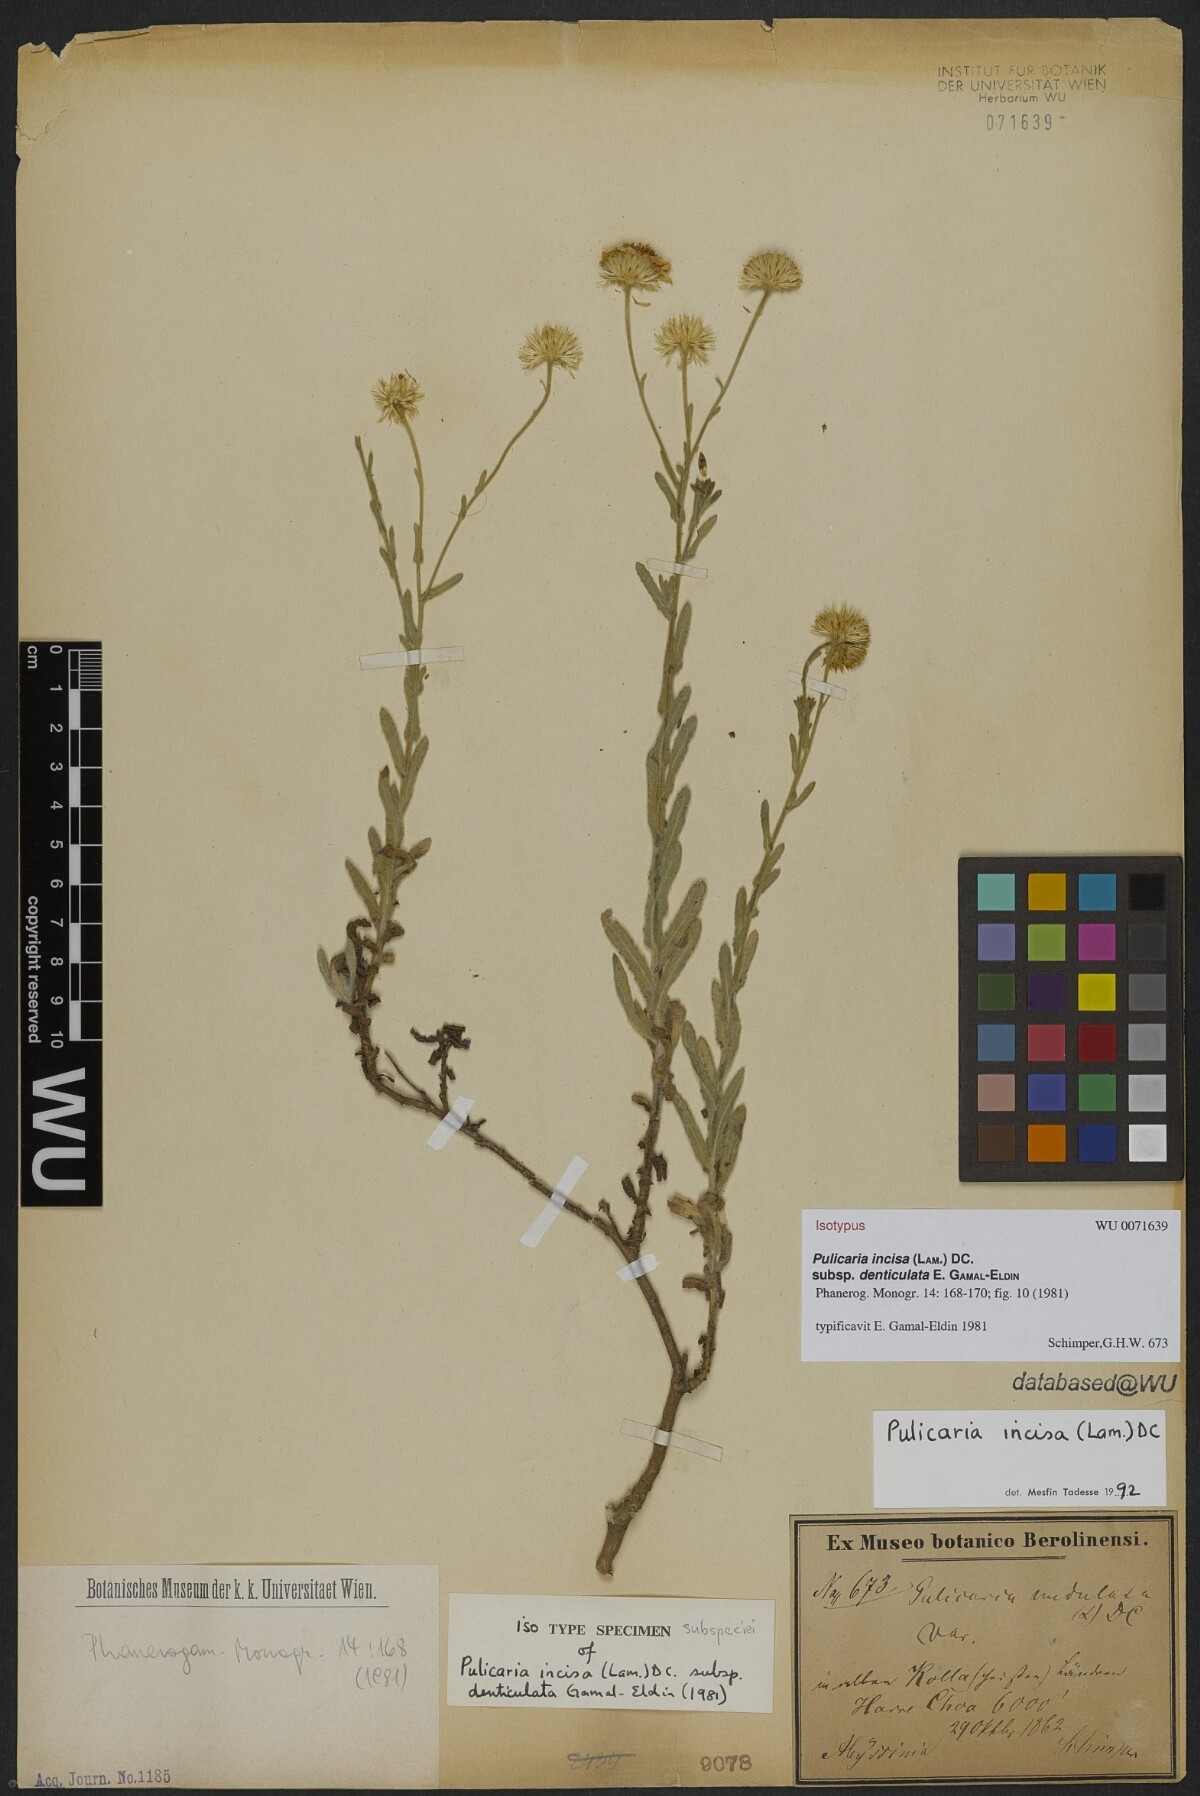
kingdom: Plantae
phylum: Tracheophyta
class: Magnoliopsida
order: Asterales
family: Asteraceae
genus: Pulicaria
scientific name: Pulicaria incisa
